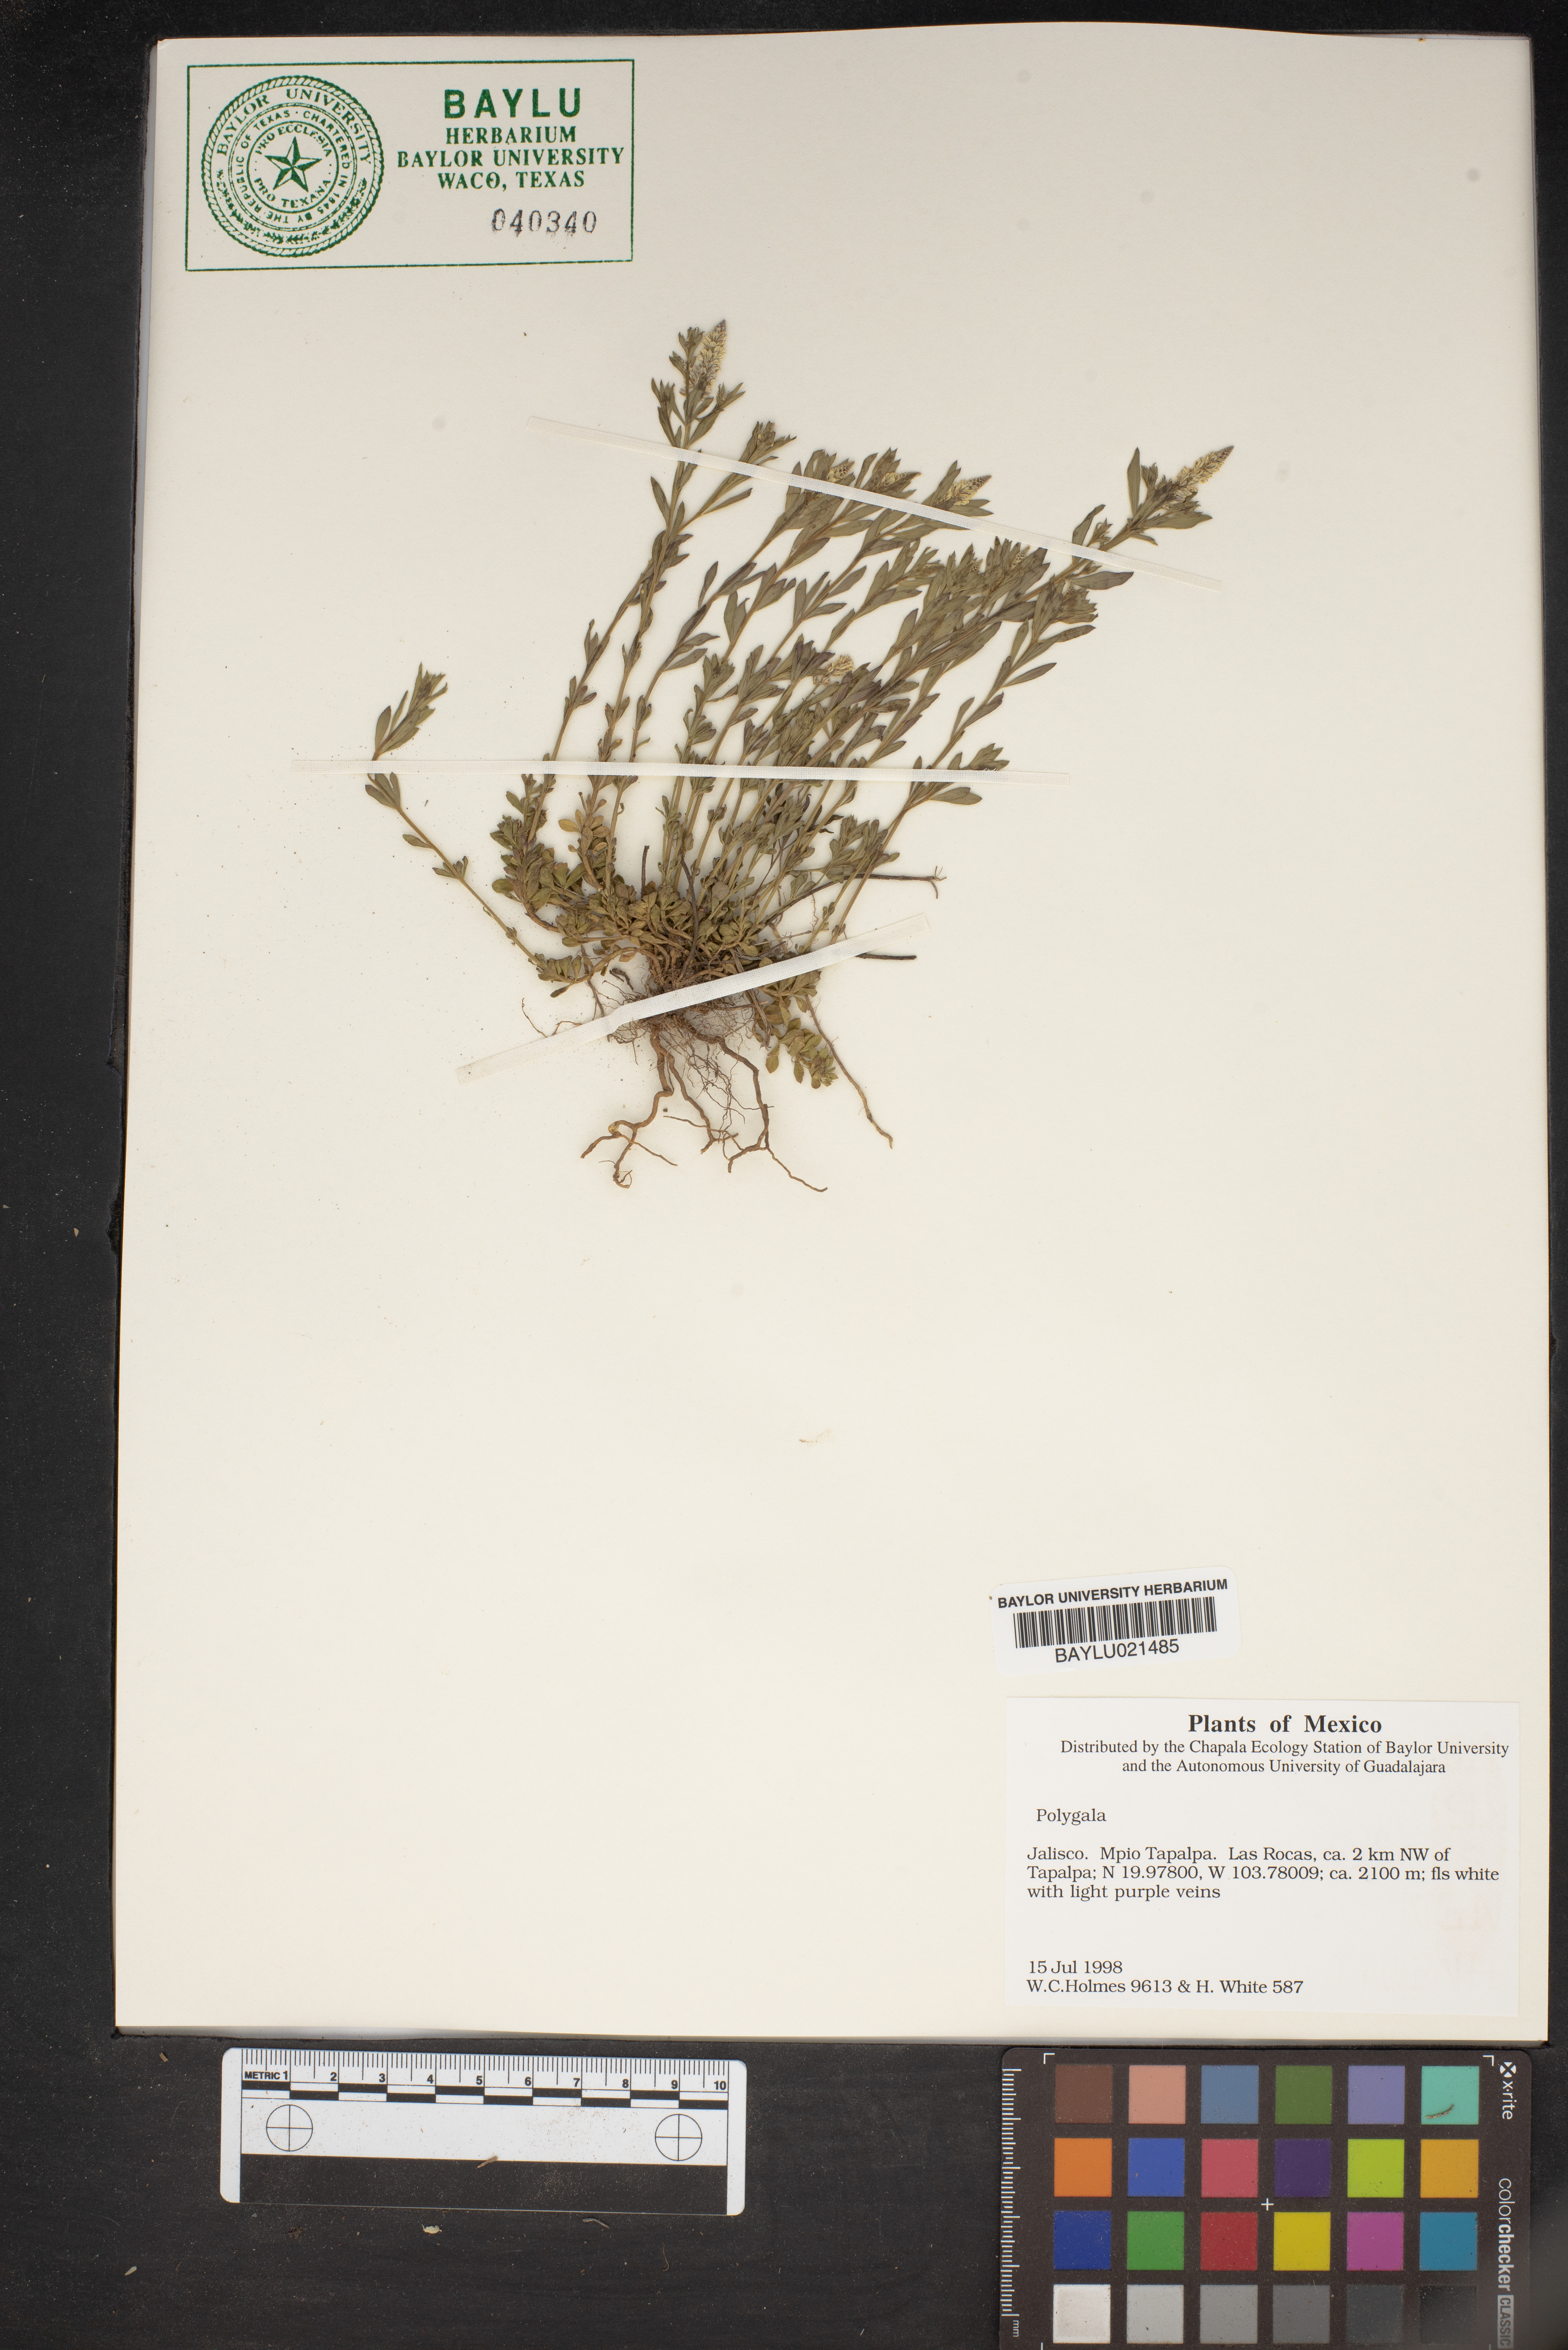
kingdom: Plantae
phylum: Tracheophyta
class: Magnoliopsida
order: Fabales
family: Polygalaceae
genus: Polygala
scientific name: Polygala
